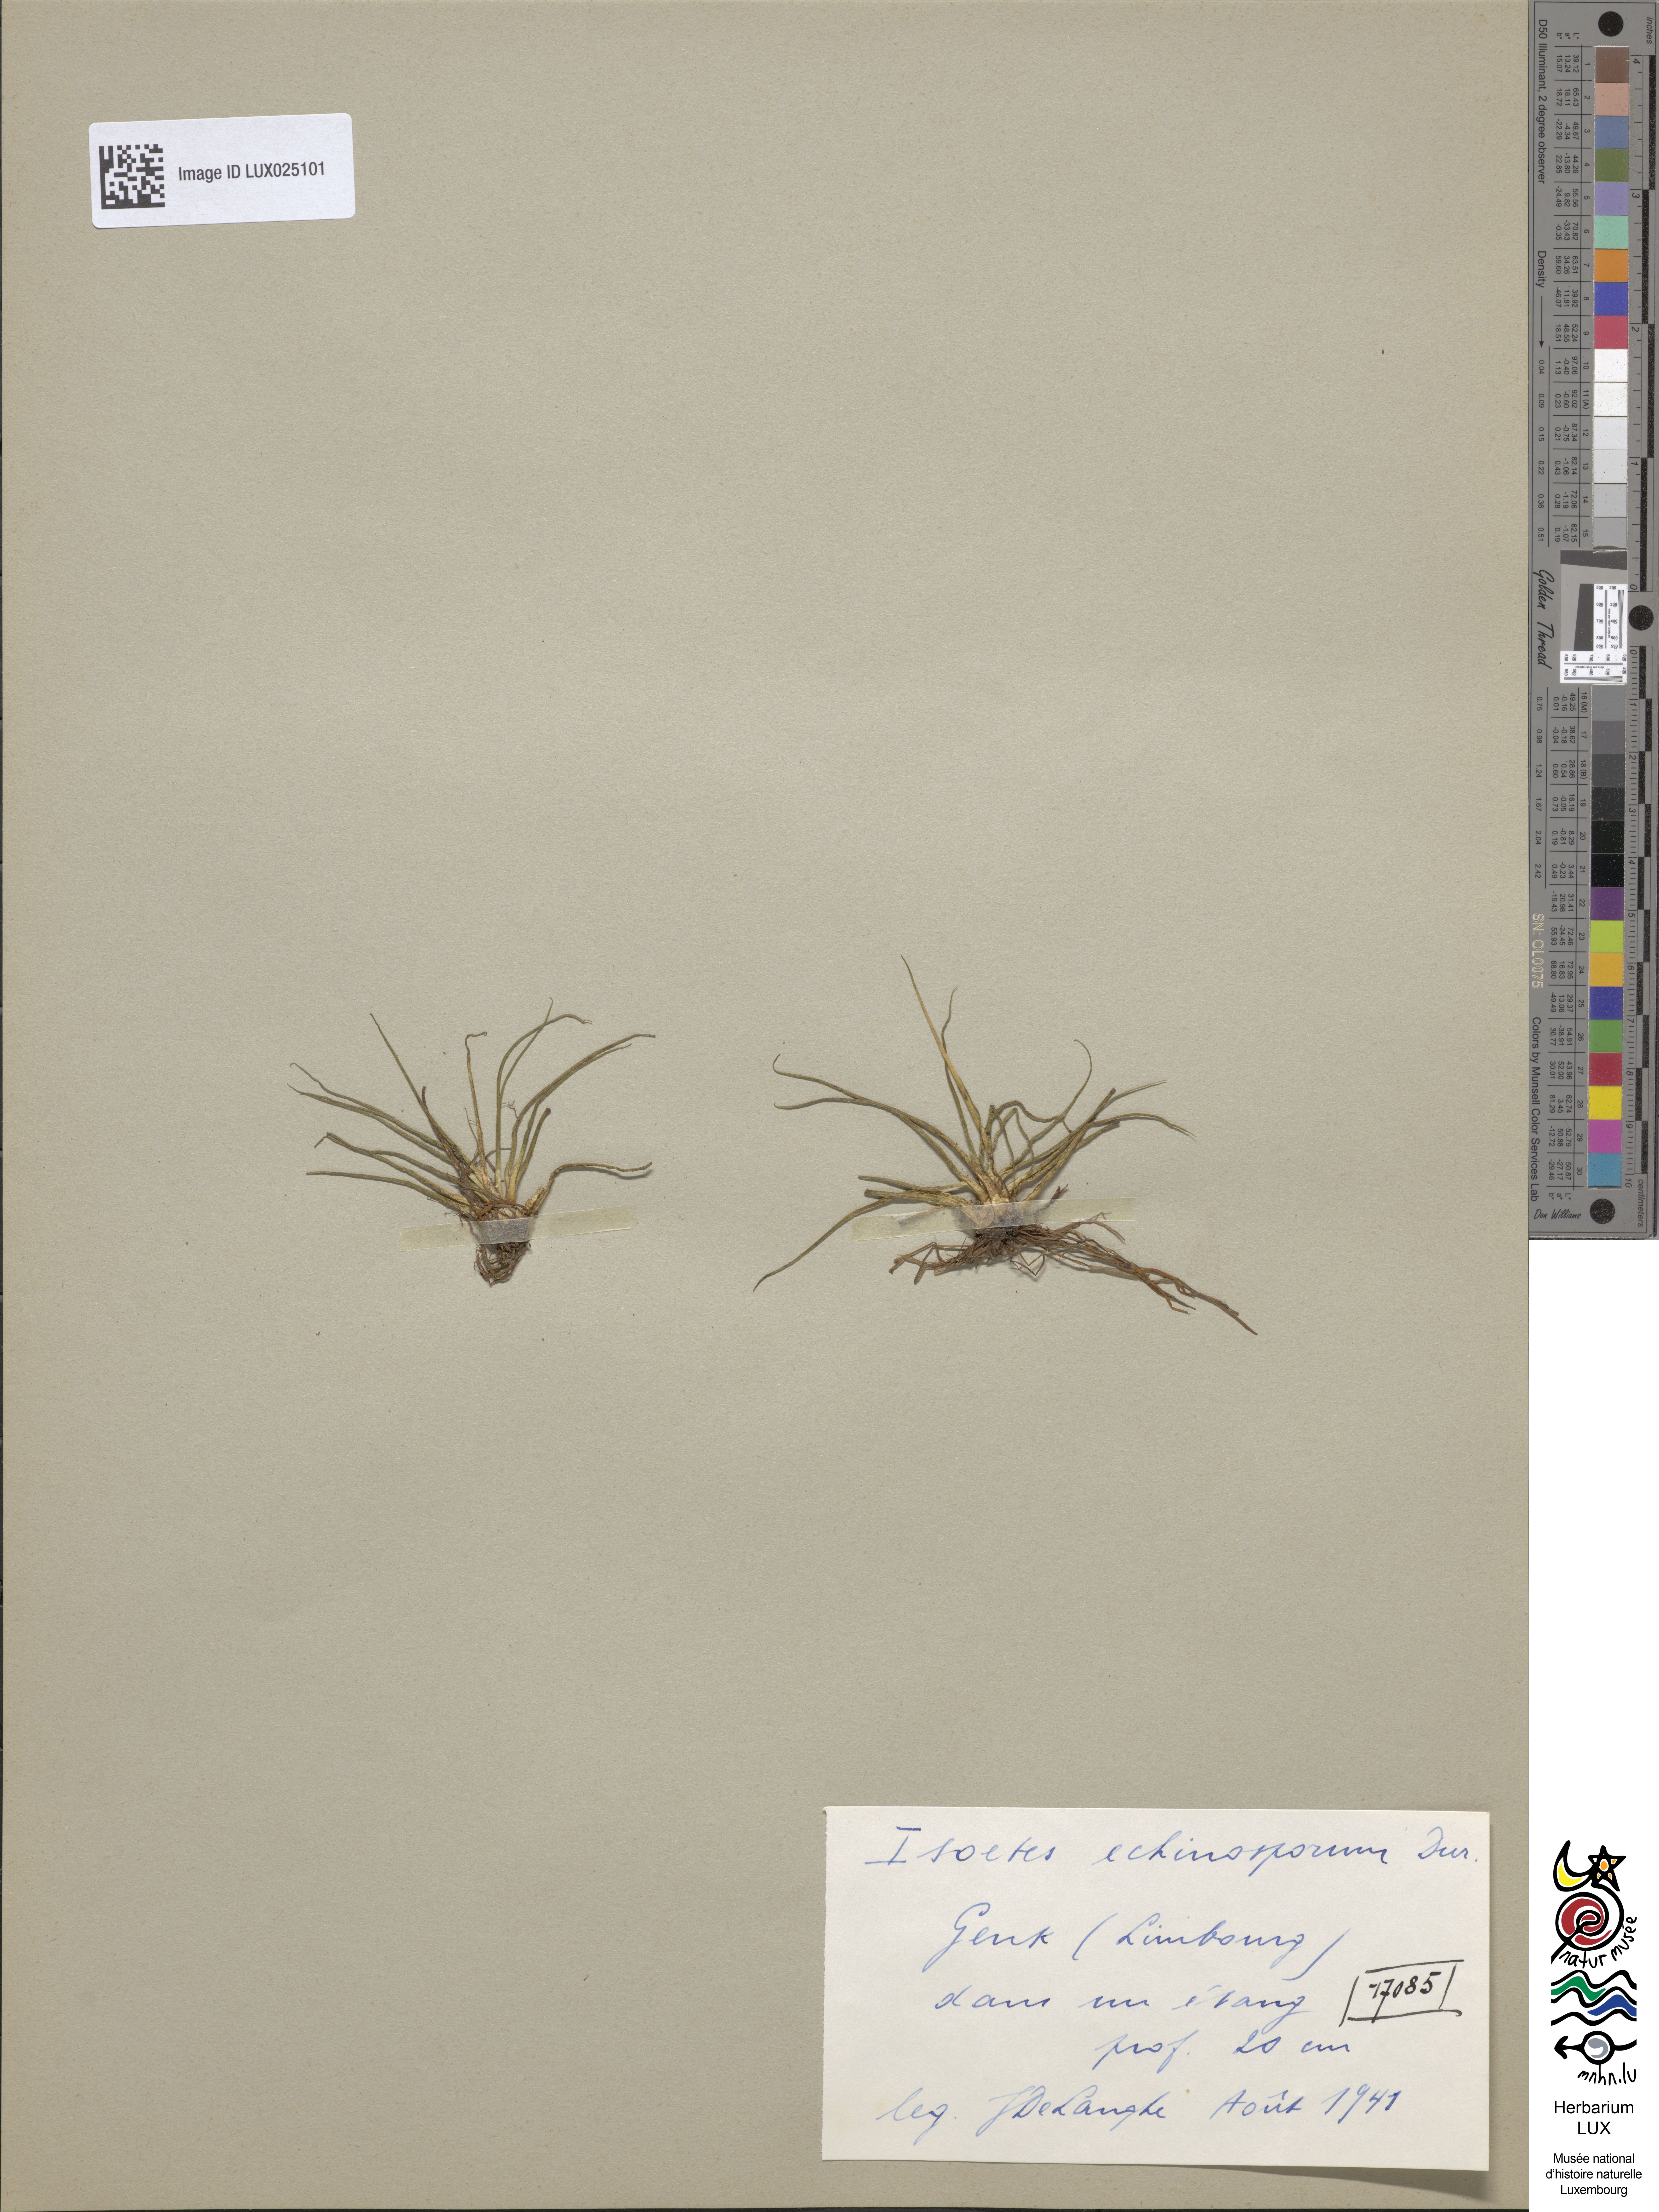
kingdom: Plantae
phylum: Tracheophyta
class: Lycopodiopsida
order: Isoetales
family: Isoetaceae
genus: Isoetes
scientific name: Isoetes echinospora
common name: Spring quillwort
